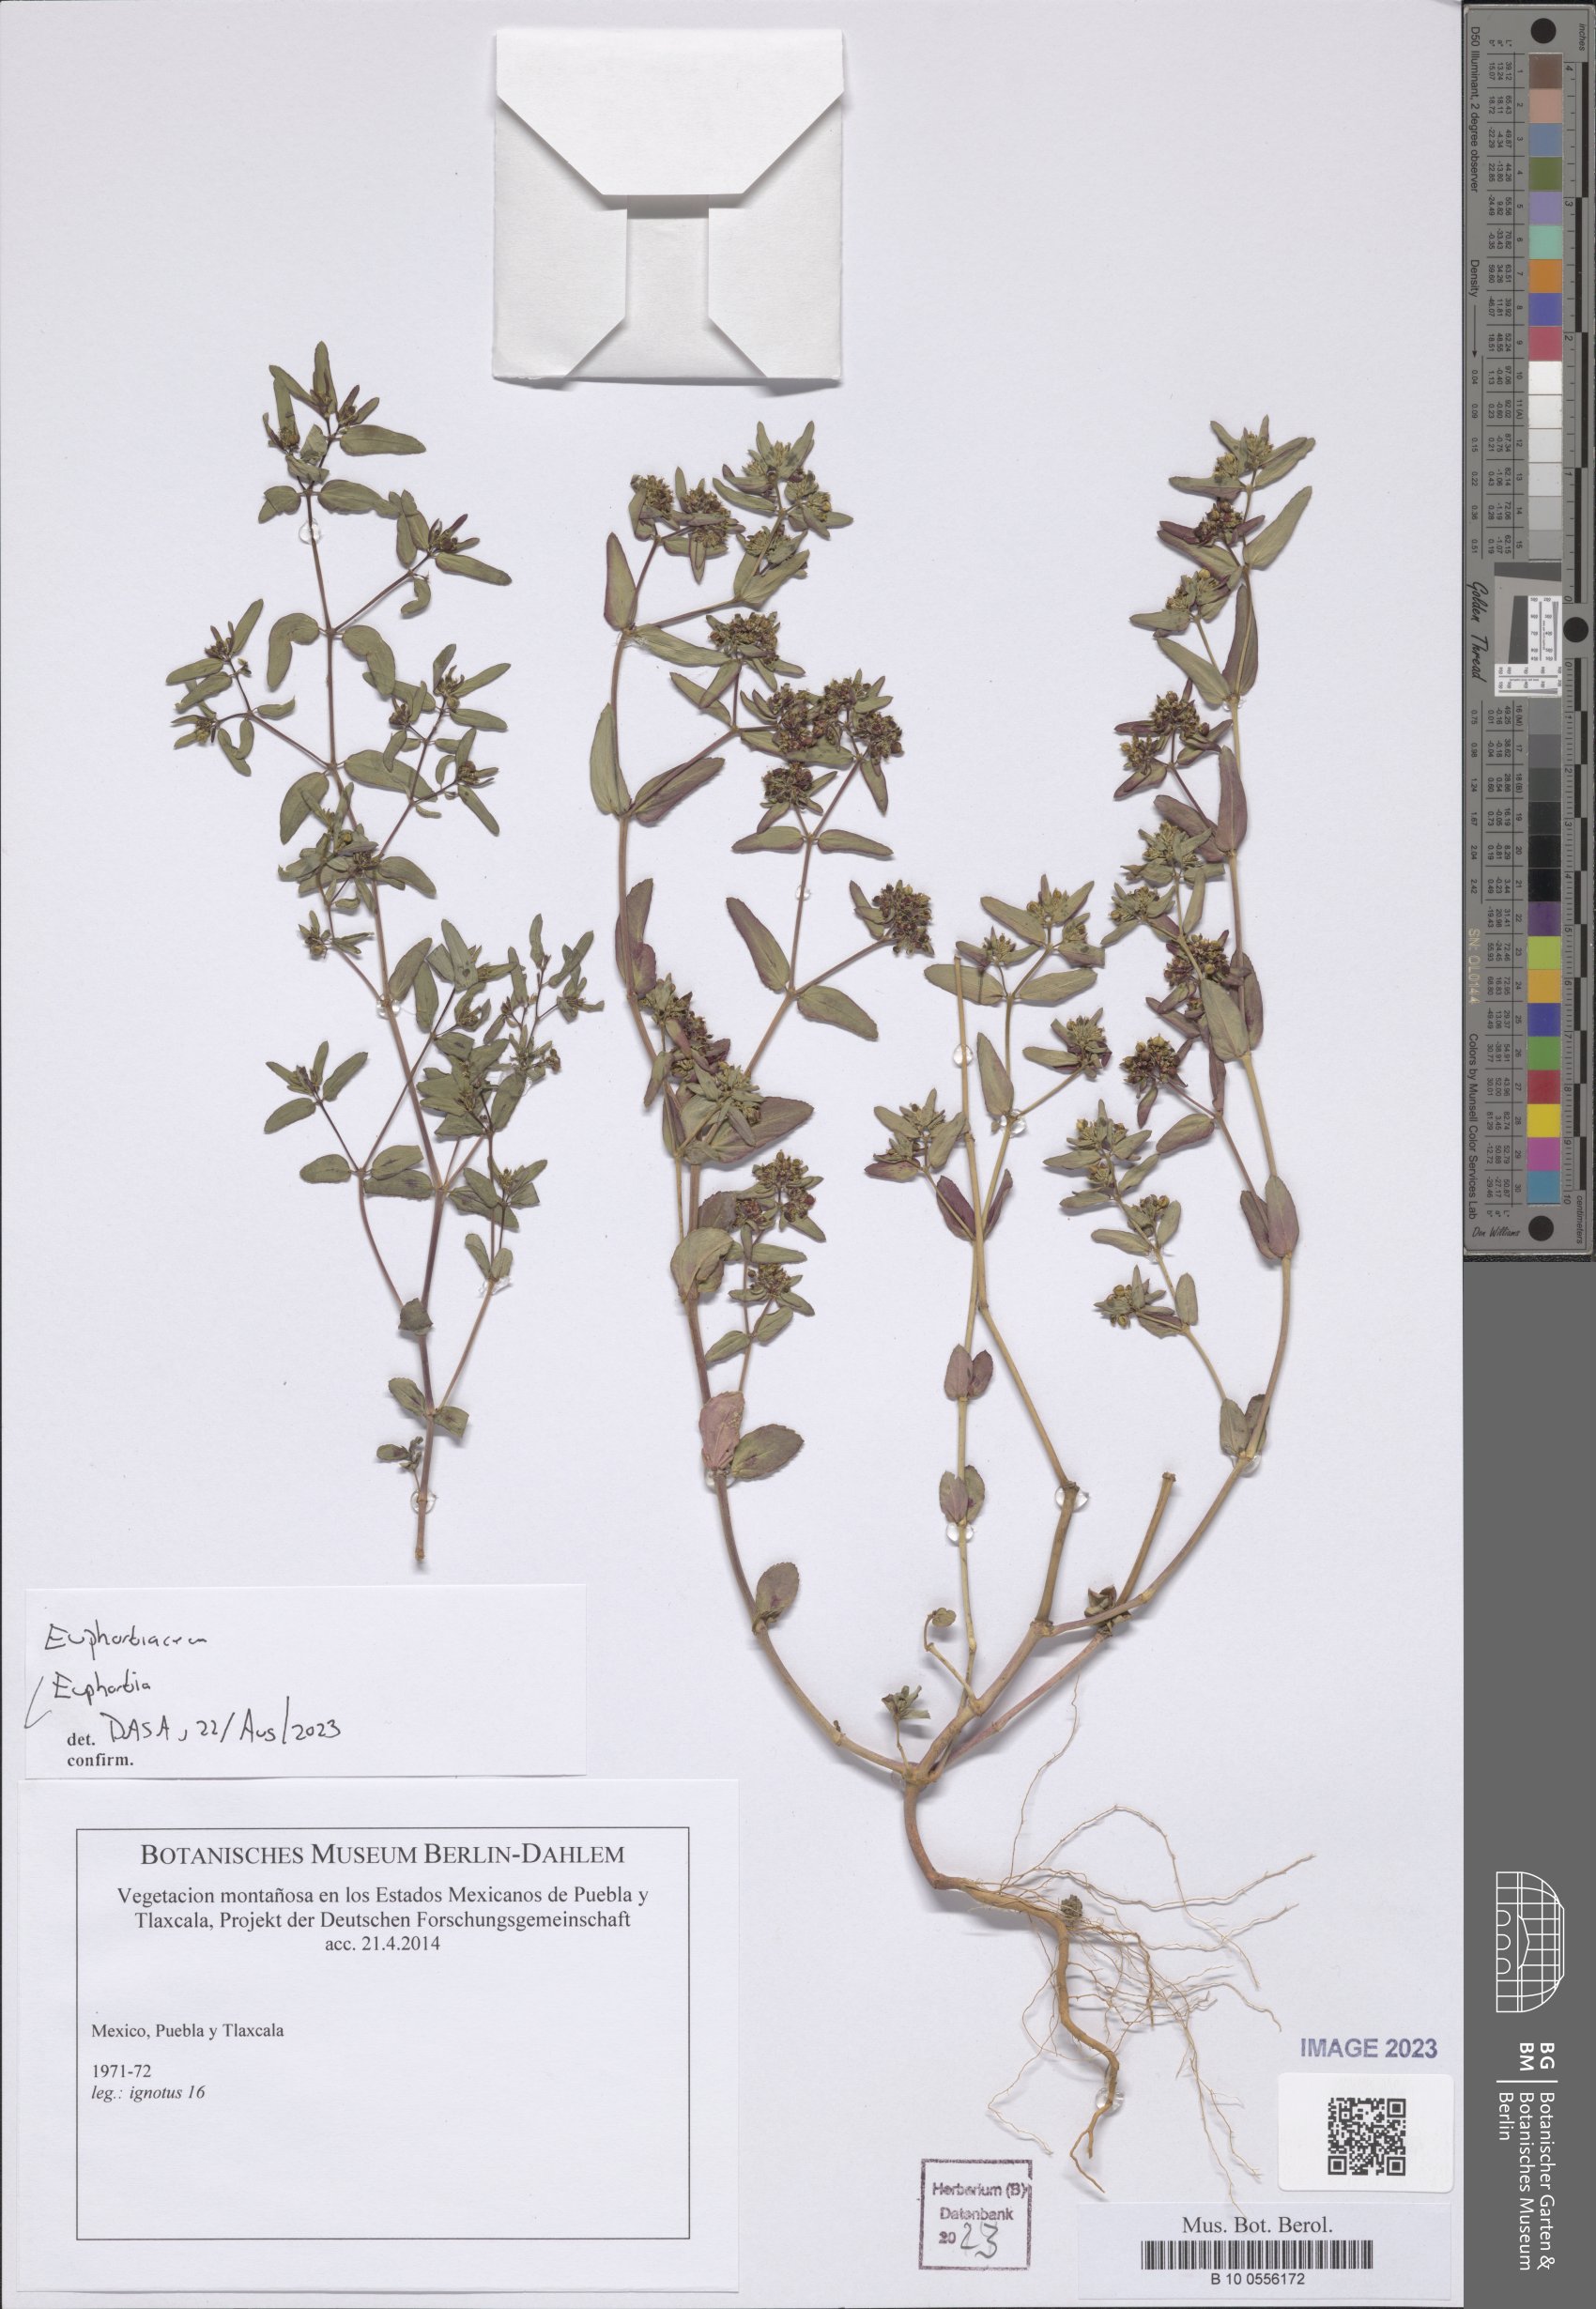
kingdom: Plantae
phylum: Tracheophyta
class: Magnoliopsida
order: Malpighiales
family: Euphorbiaceae
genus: Euphorbia
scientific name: Euphorbia
